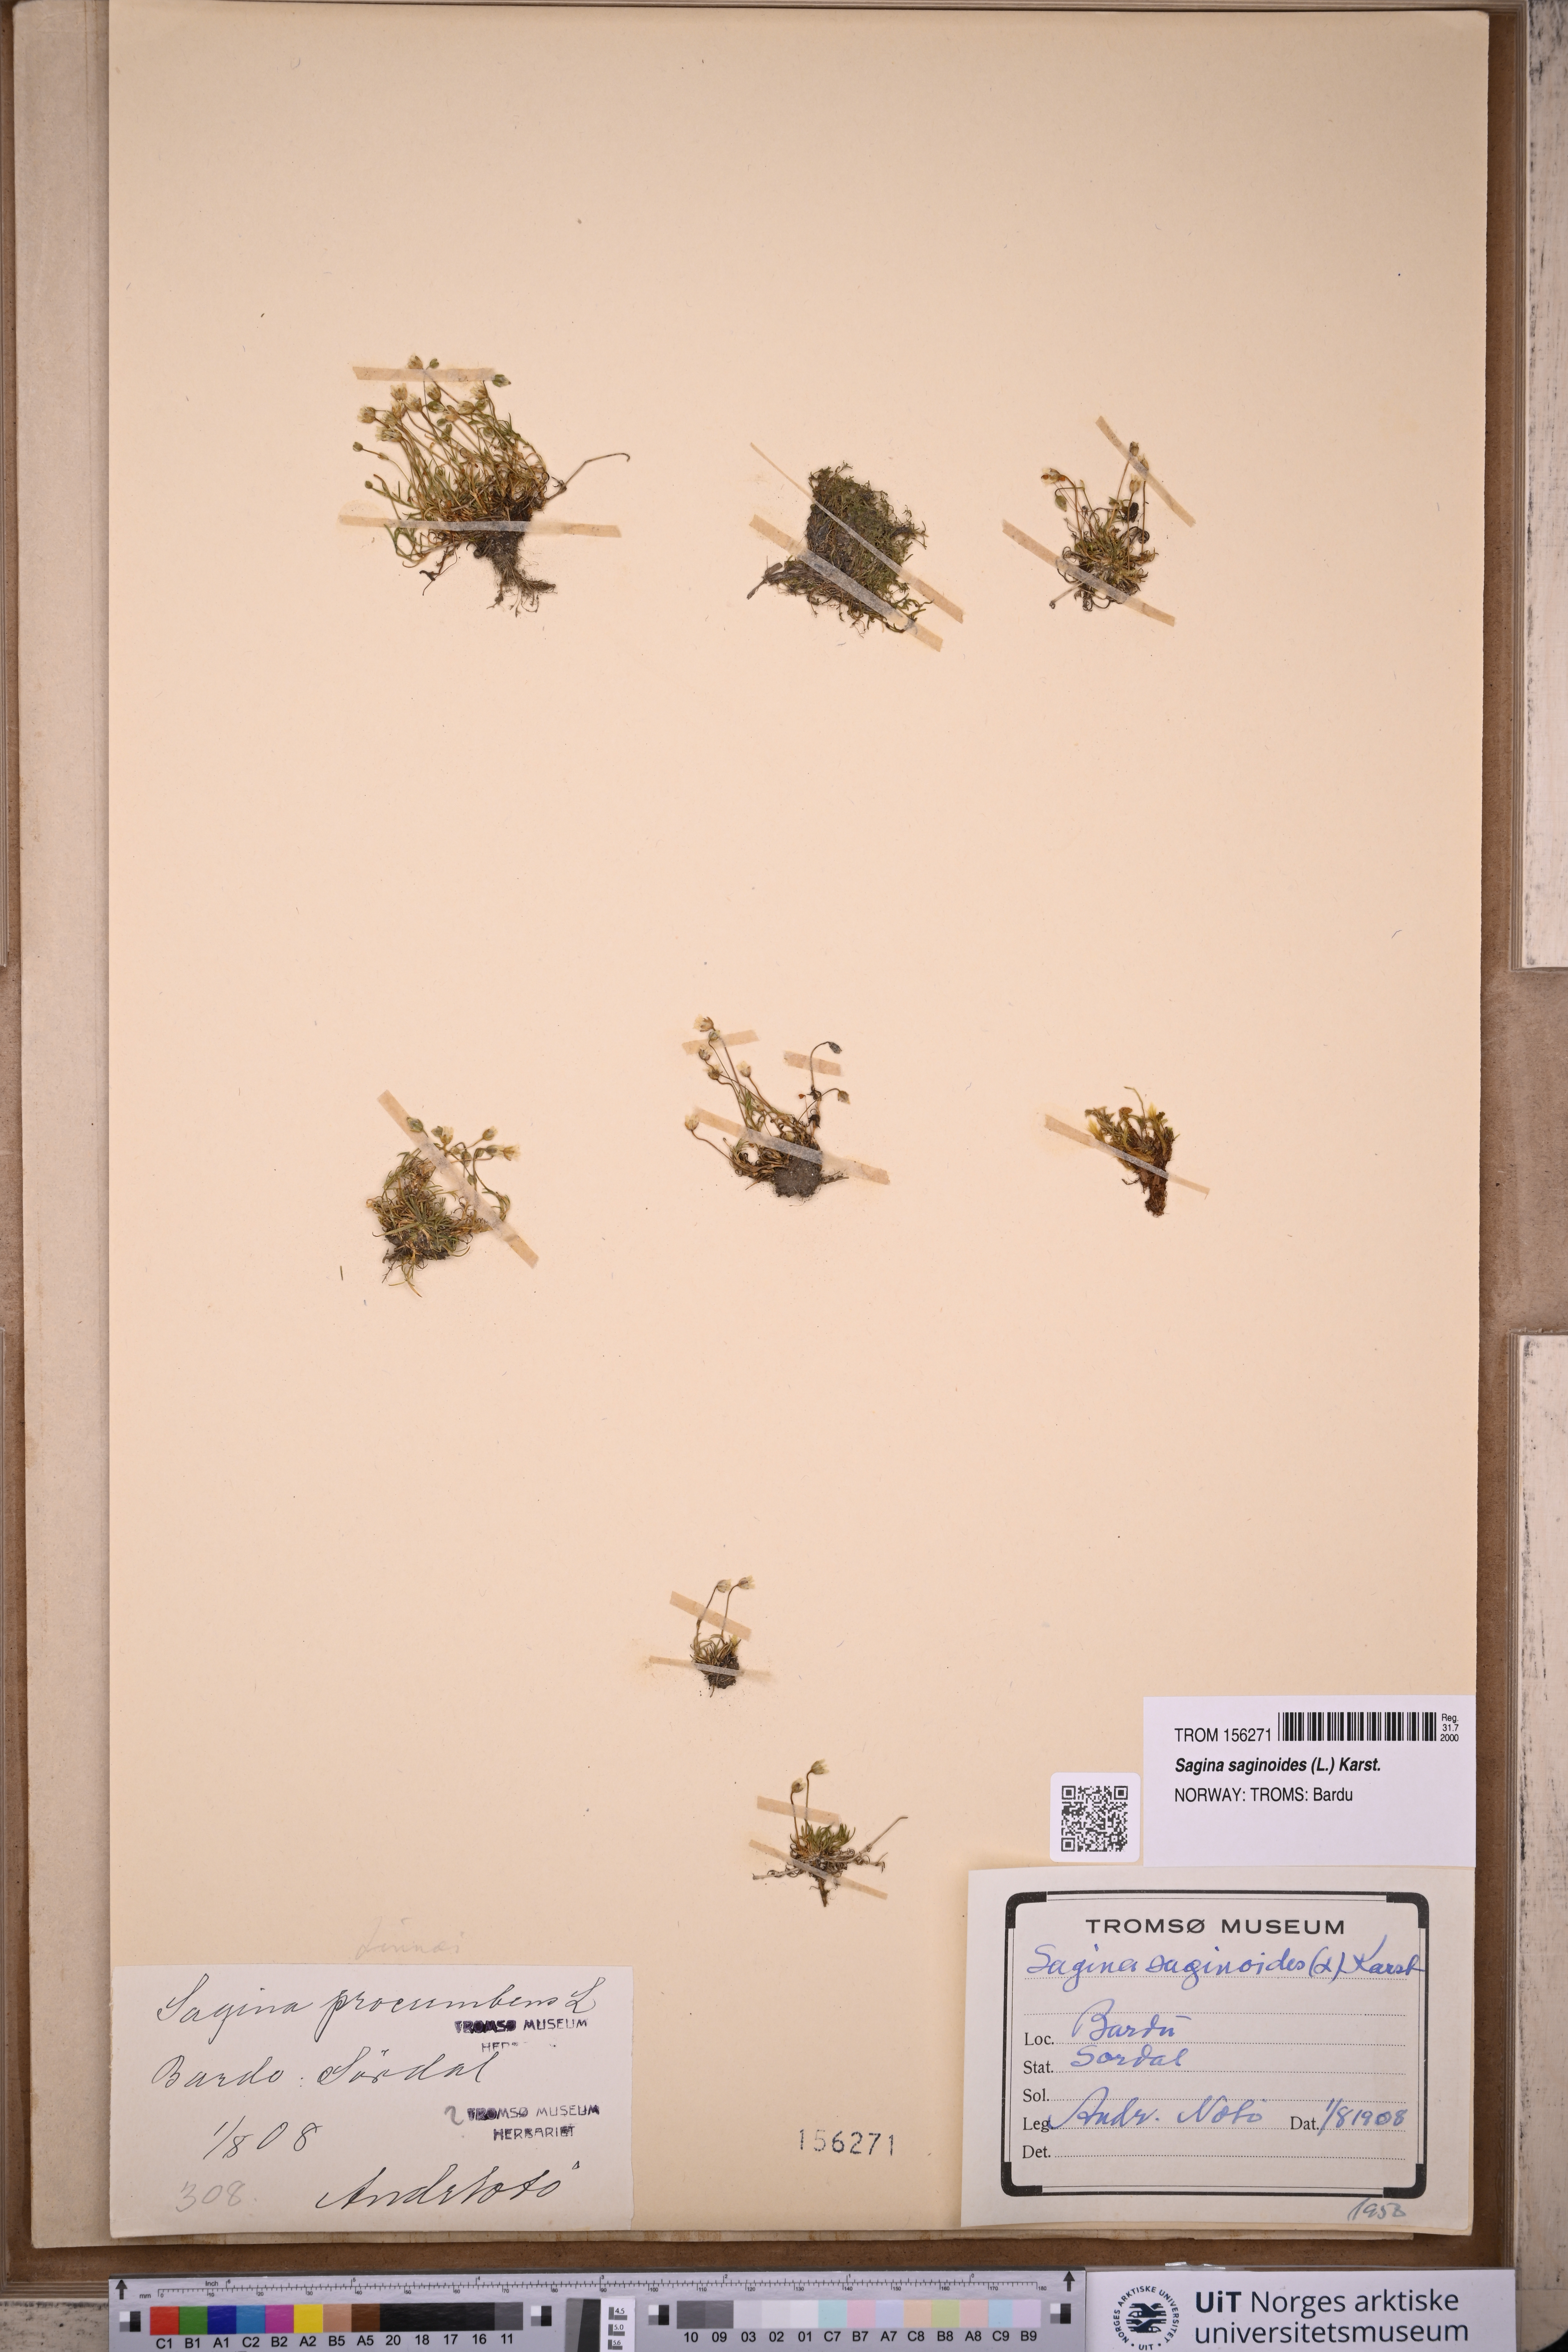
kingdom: Plantae
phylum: Tracheophyta
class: Magnoliopsida
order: Caryophyllales
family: Caryophyllaceae
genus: Sagina
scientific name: Sagina saginoides
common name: Alpine pearlwort
